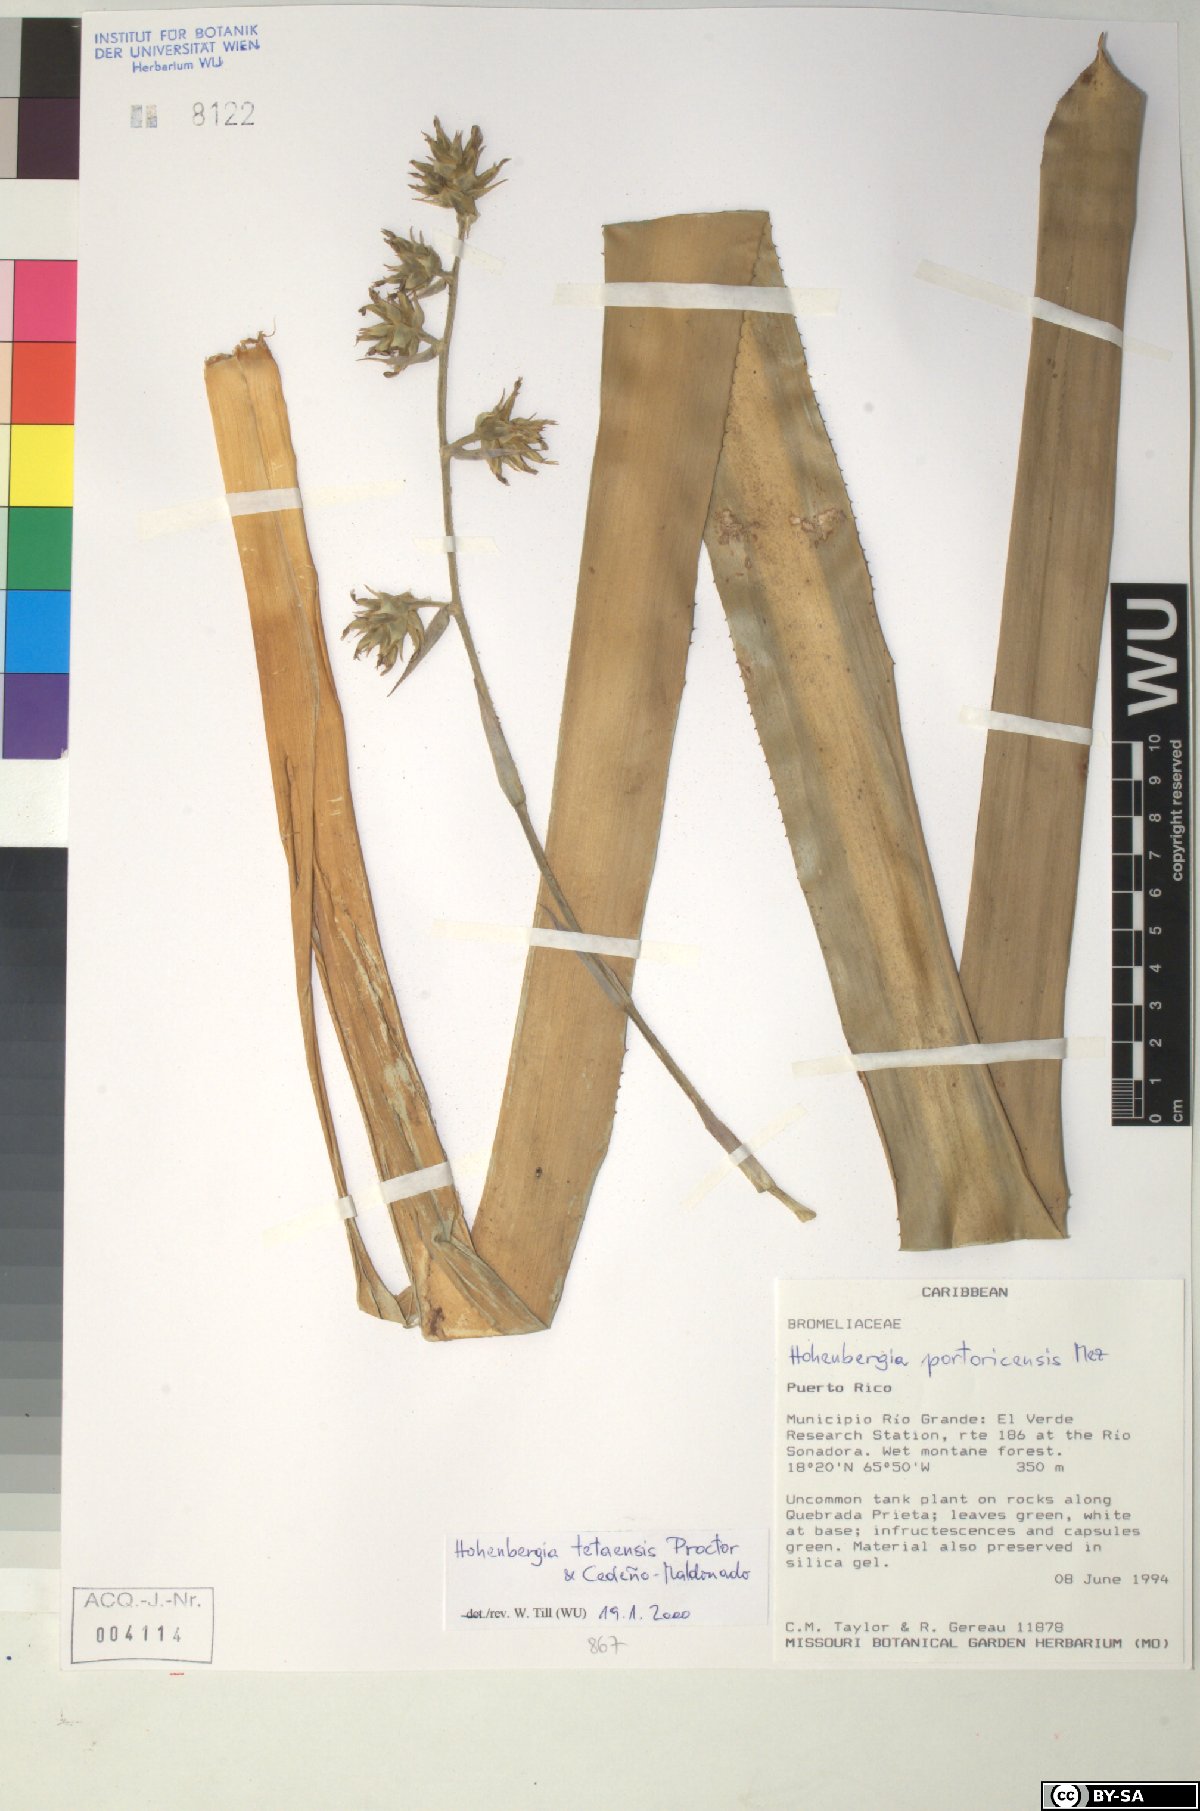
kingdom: Plantae
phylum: Tracheophyta
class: Liliopsida
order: Poales
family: Bromeliaceae
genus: Wittmackia
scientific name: Wittmackia antillana
